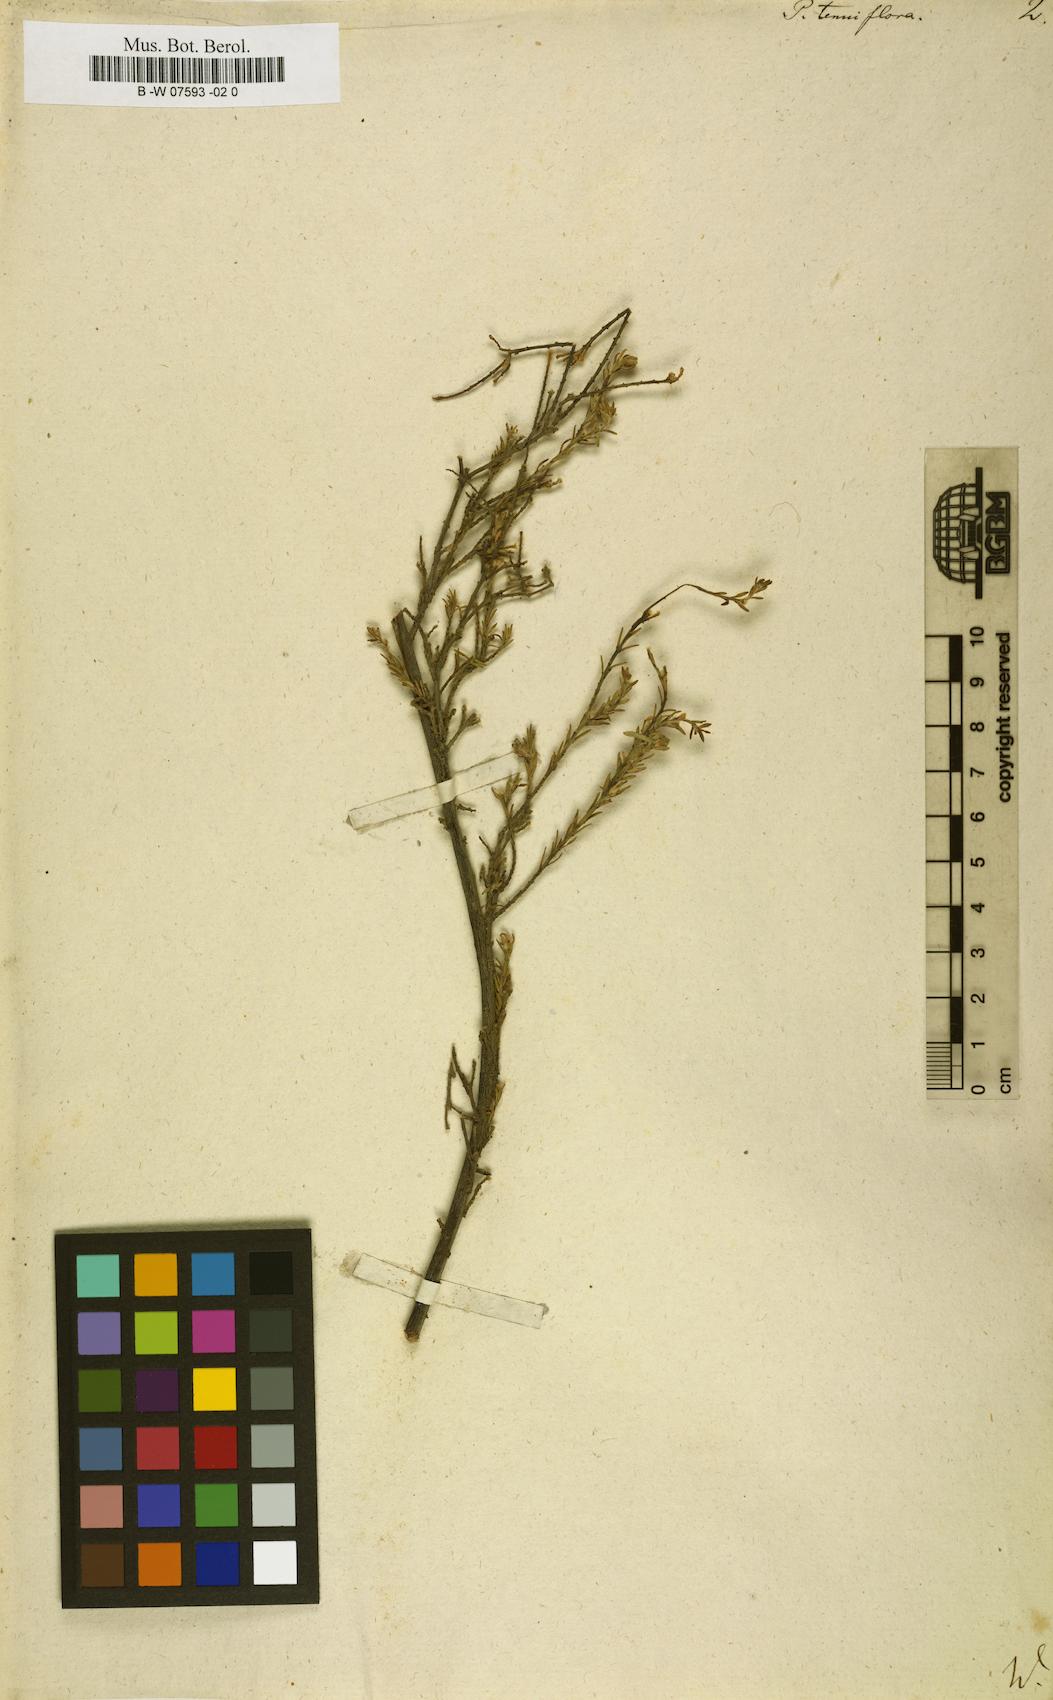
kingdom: Plantae
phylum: Tracheophyta
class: Magnoliopsida
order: Malvales
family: Thymelaeaceae
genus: Gnidia
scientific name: Gnidia laxa
